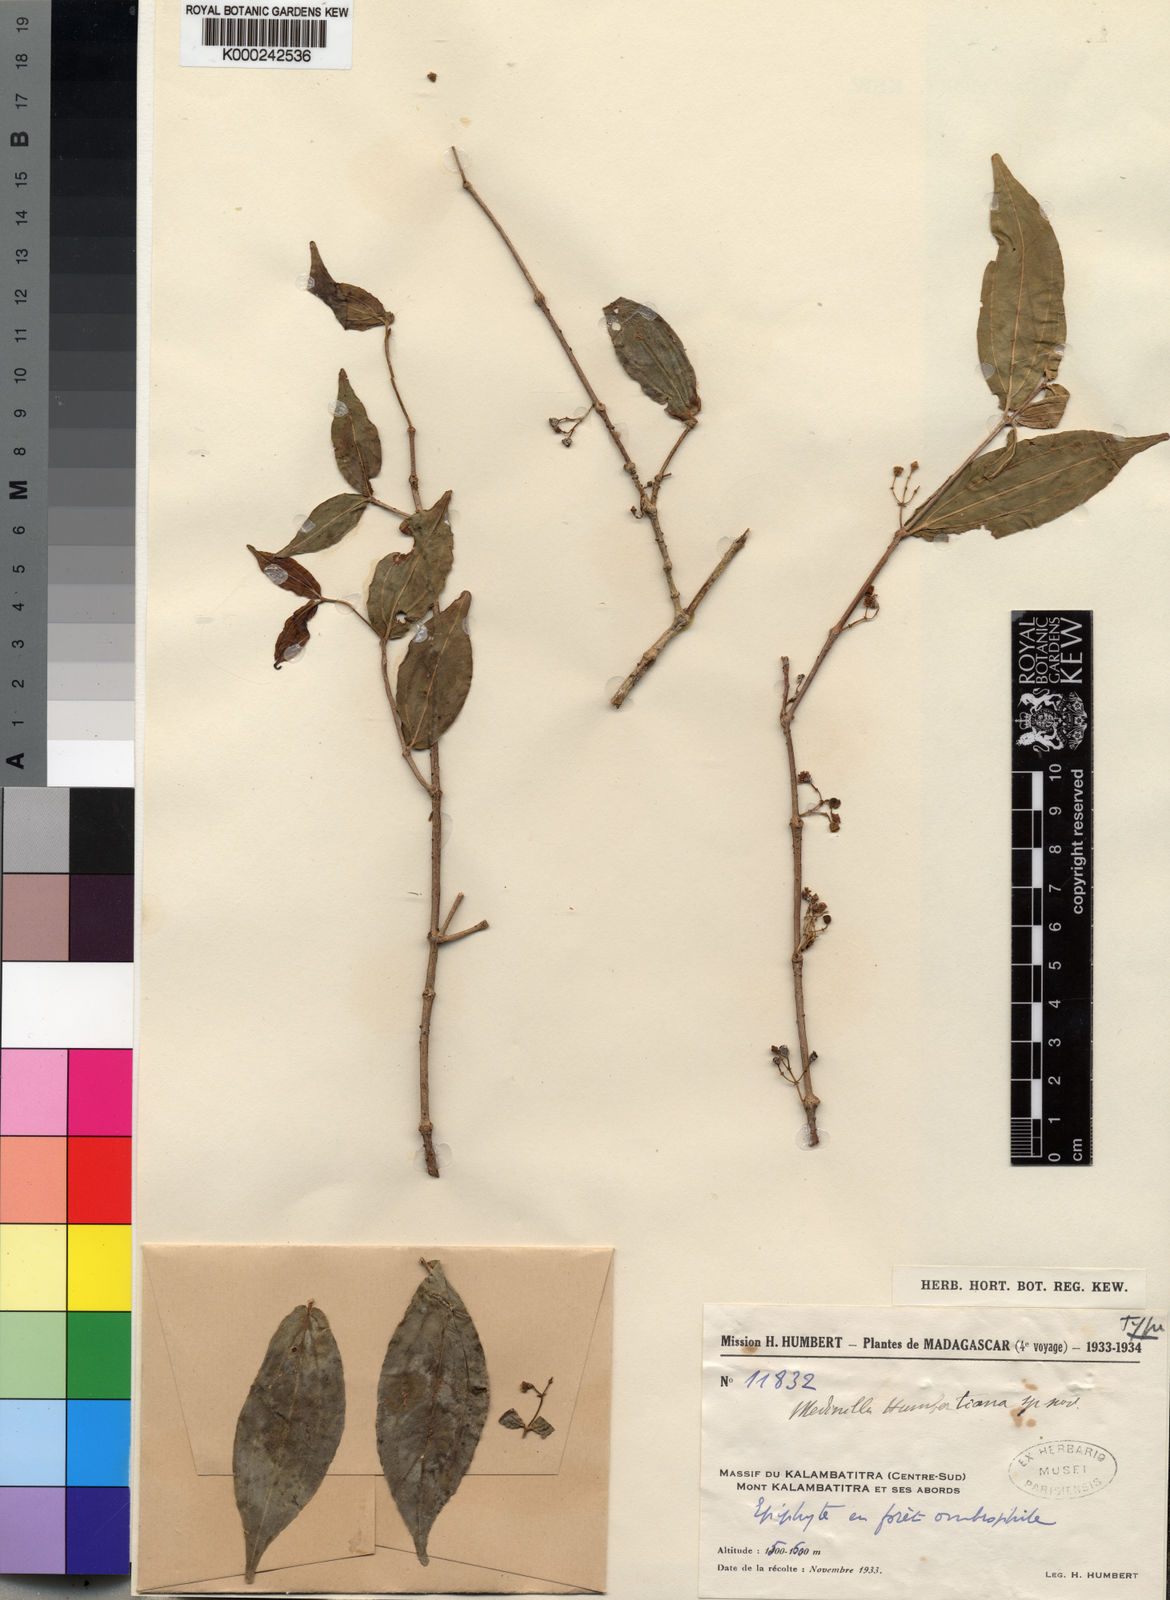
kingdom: Plantae
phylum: Tracheophyta
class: Magnoliopsida
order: Myrtales
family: Melastomataceae
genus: Medinilla
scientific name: Medinilla humbertiana
